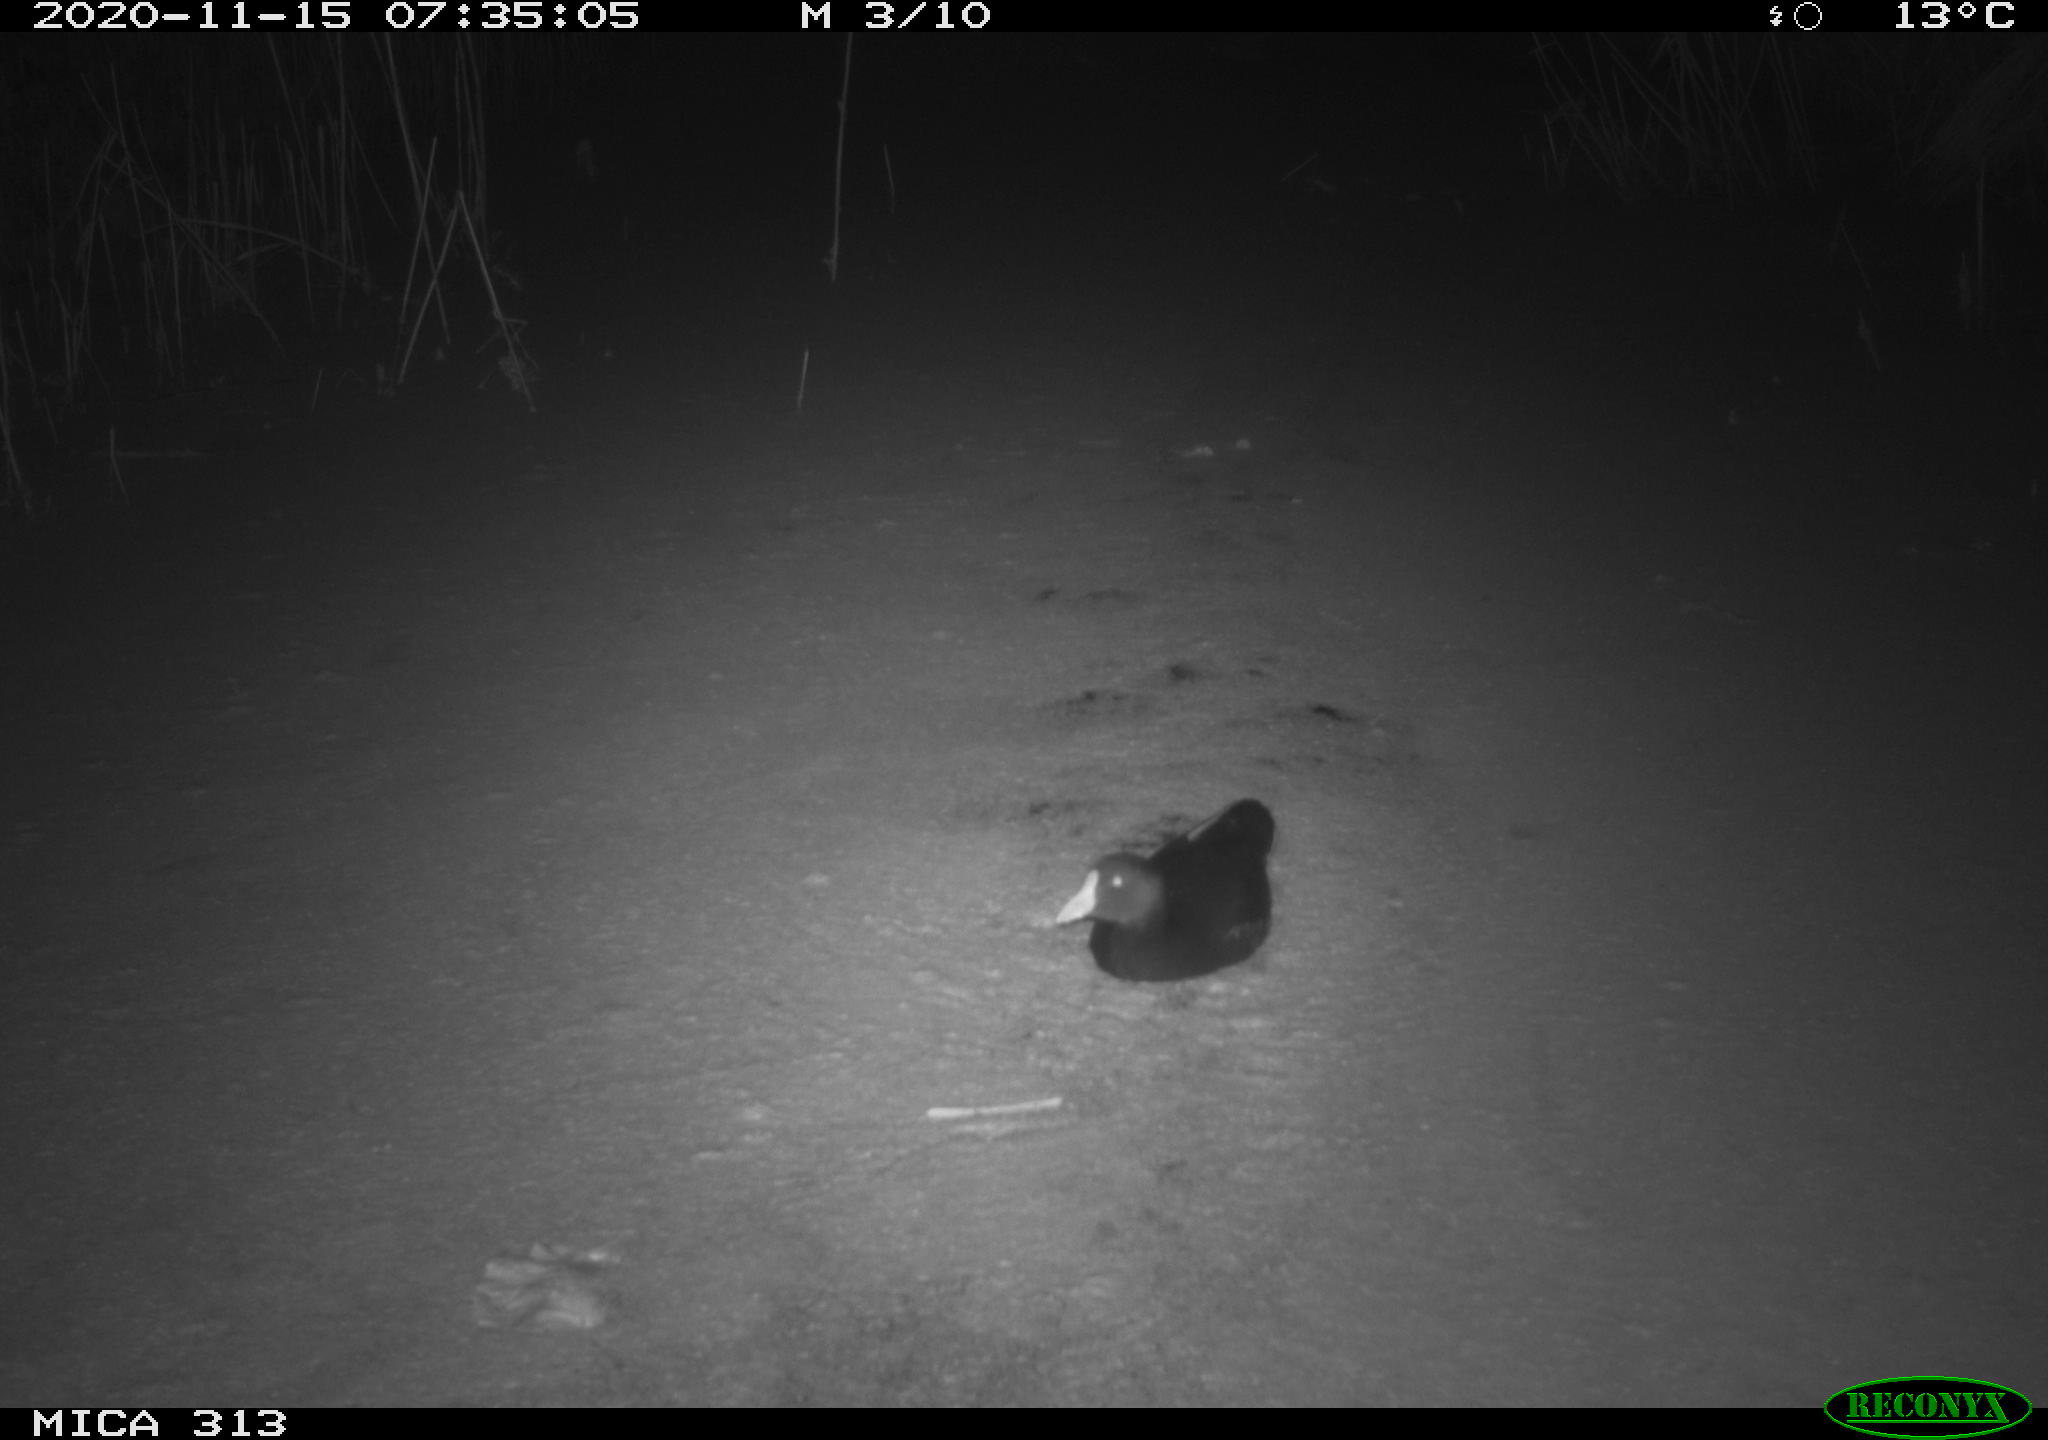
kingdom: Animalia
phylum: Chordata
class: Aves
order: Gruiformes
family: Rallidae
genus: Gallinula
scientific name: Gallinula chloropus
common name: Common moorhen
